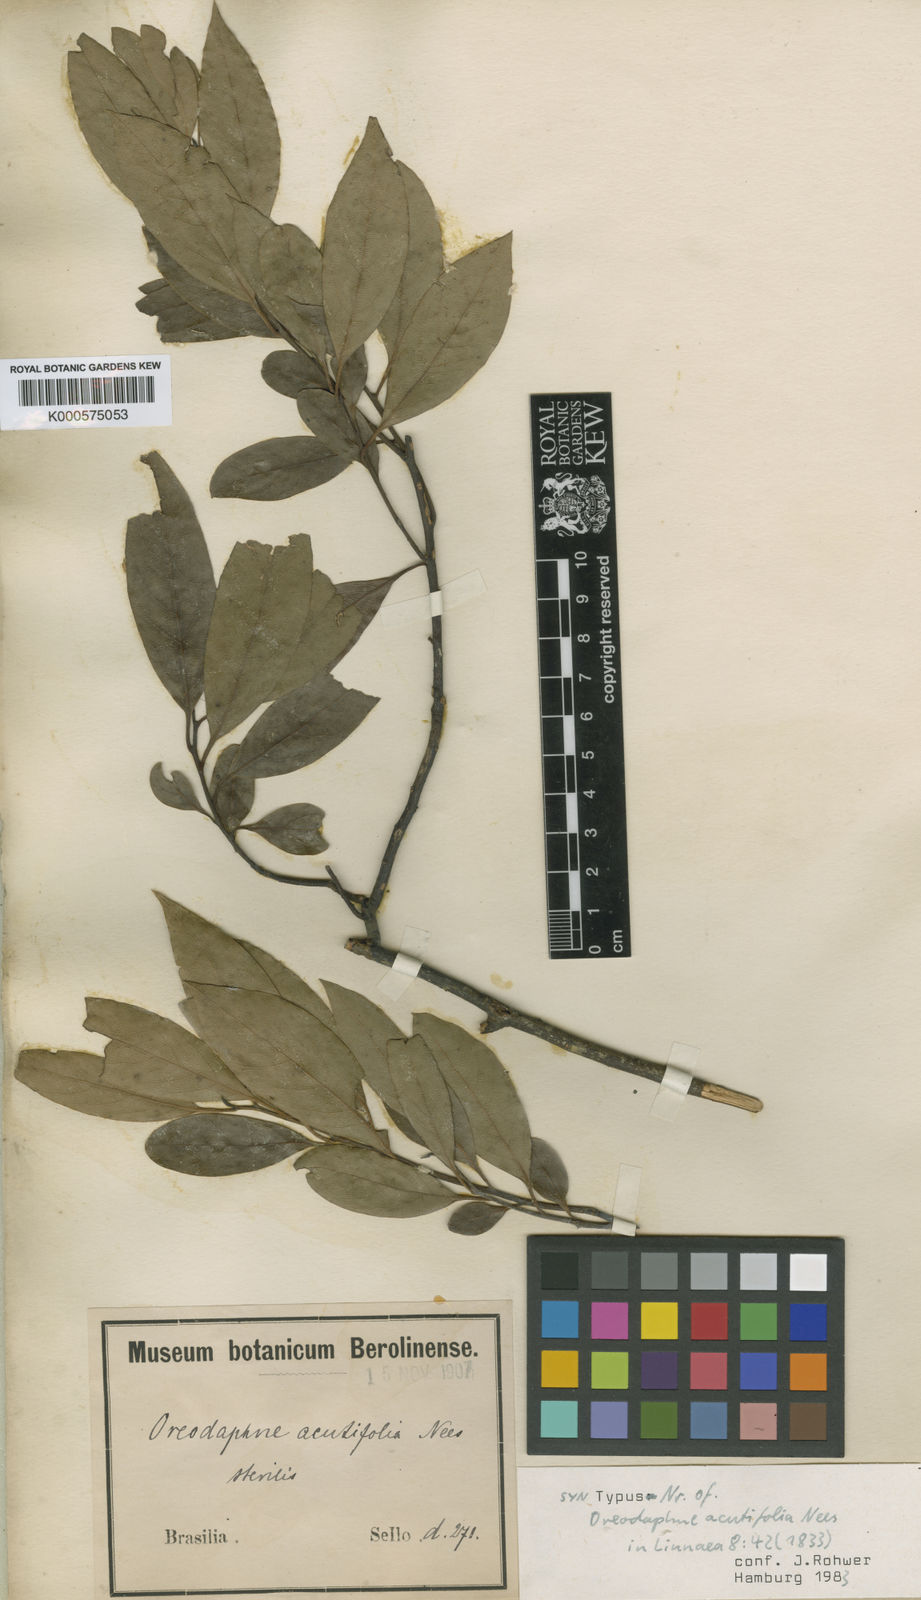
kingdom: Plantae
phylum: Tracheophyta
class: Magnoliopsida
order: Laurales
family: Lauraceae
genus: Ocotea
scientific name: Ocotea acutifolia
